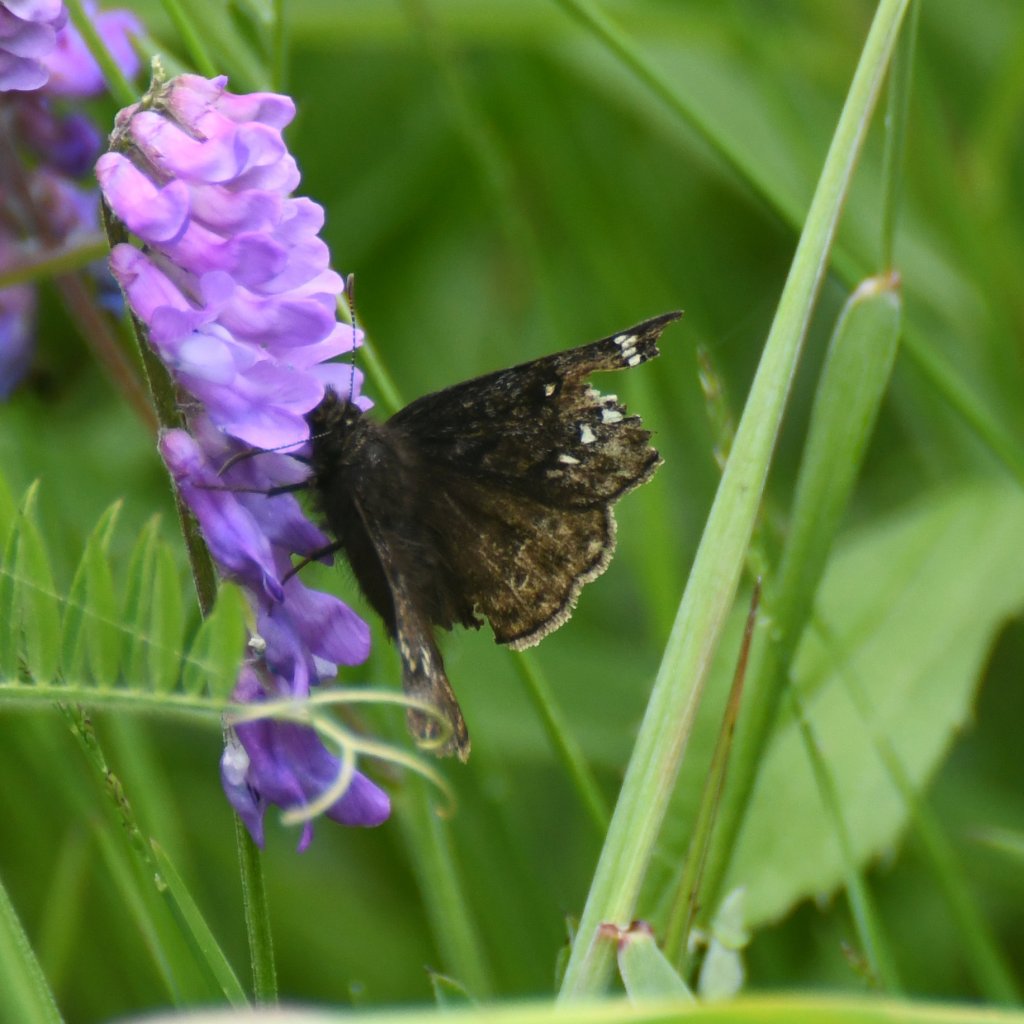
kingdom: Animalia
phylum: Arthropoda
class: Insecta
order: Lepidoptera
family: Hesperiidae
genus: Gesta
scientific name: Gesta
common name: Juvenal's Duskywing
